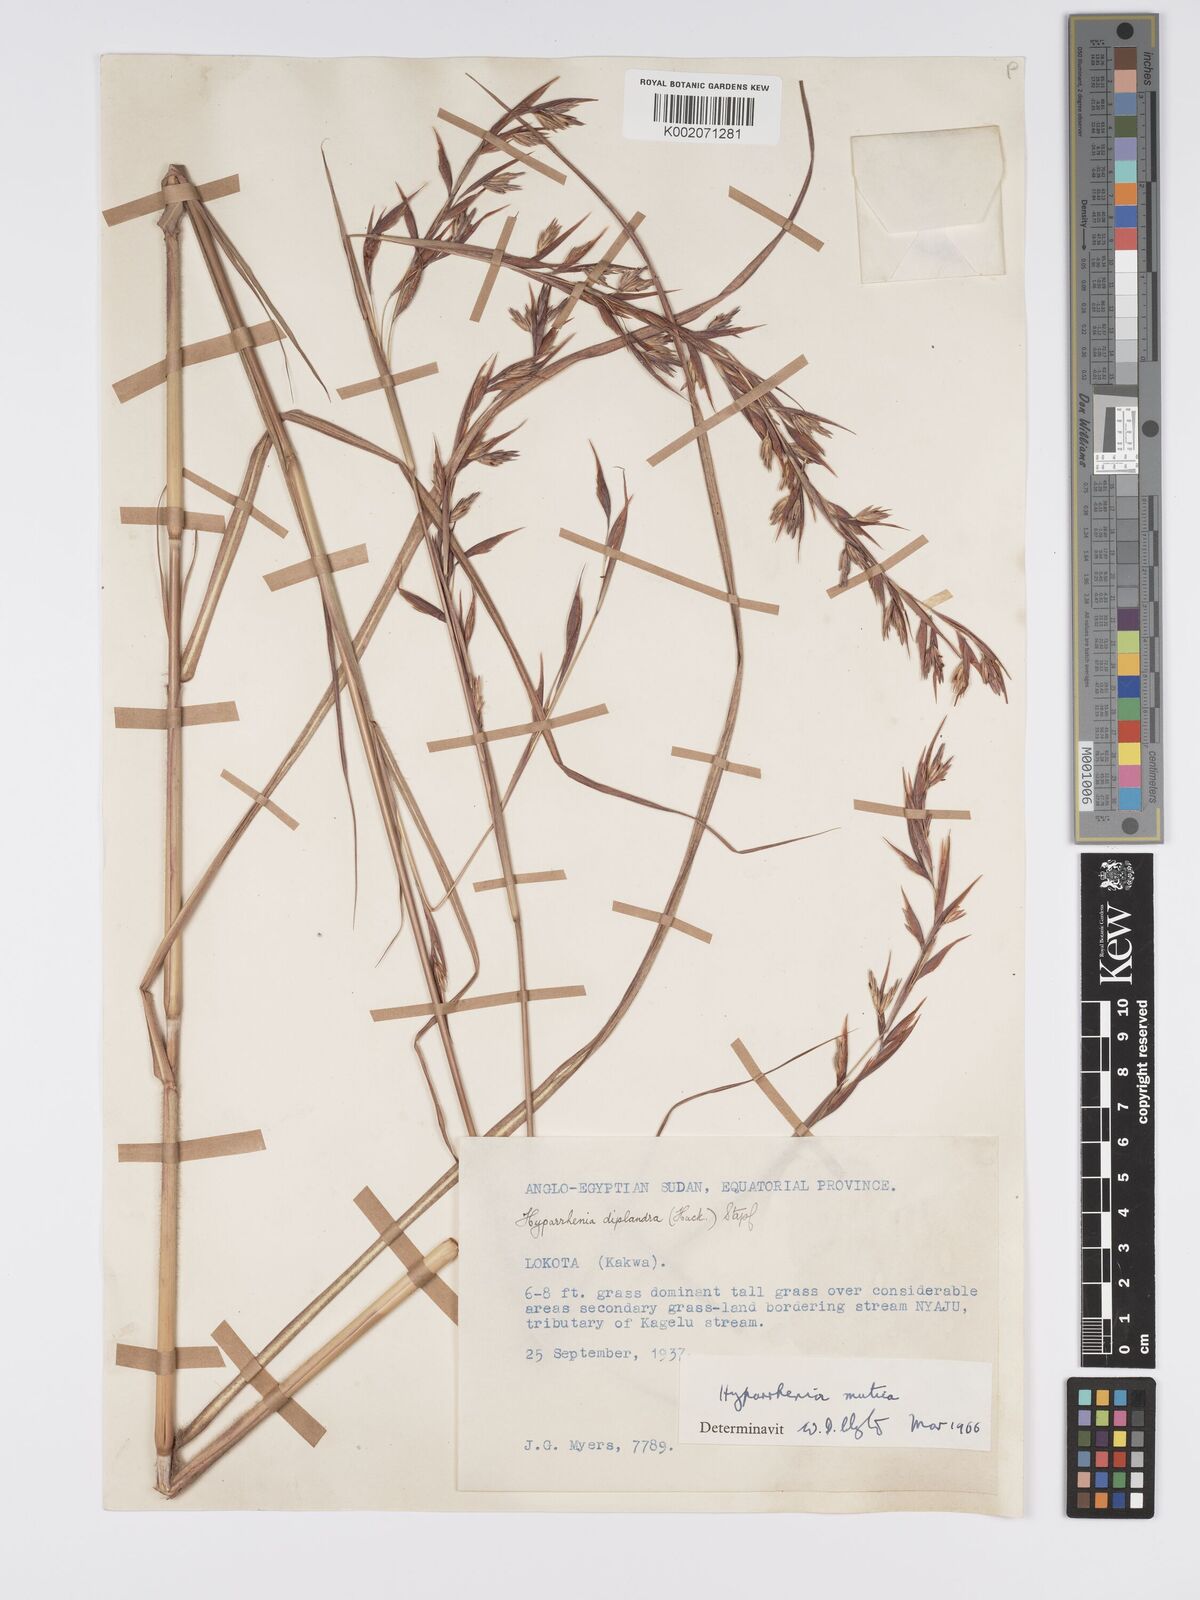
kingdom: Plantae
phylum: Tracheophyta
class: Liliopsida
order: Poales
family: Poaceae
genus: Hyparrhenia
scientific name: Hyparrhenia diplandra
